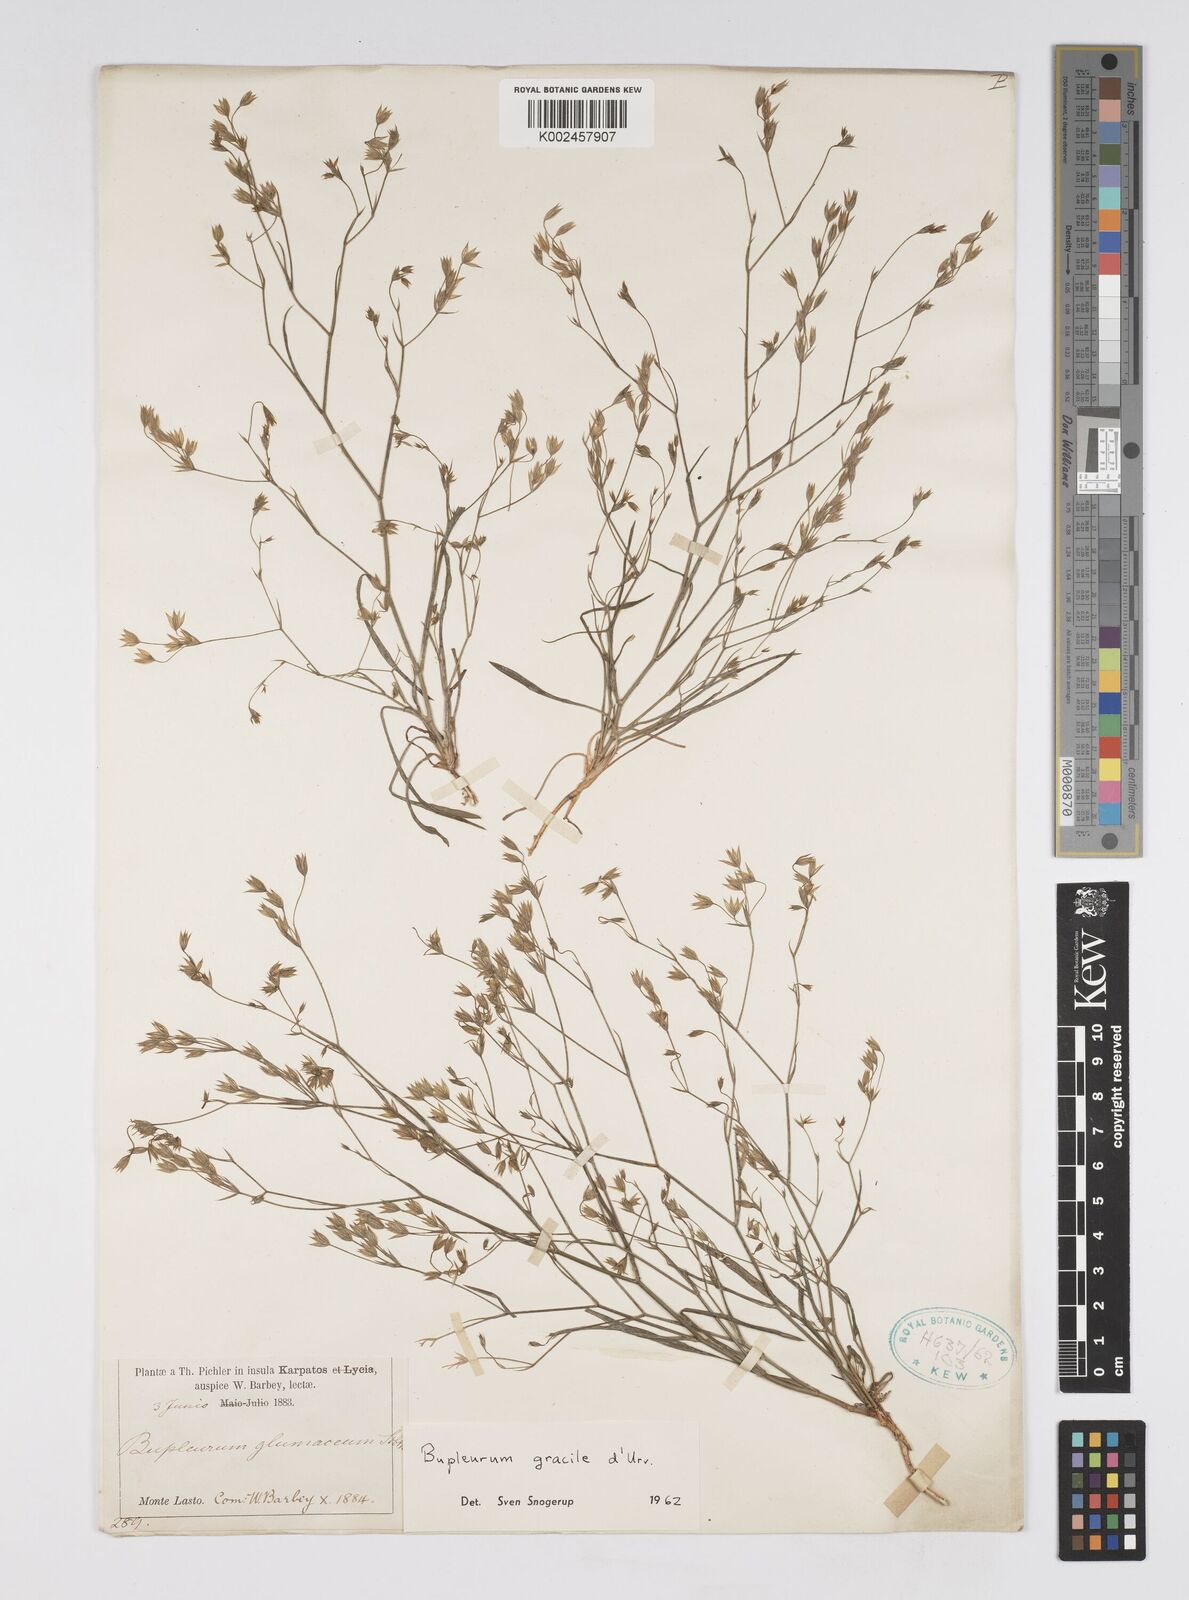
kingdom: Plantae
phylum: Tracheophyta
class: Magnoliopsida
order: Apiales
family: Apiaceae
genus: Bupleurum
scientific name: Bupleurum gracile
